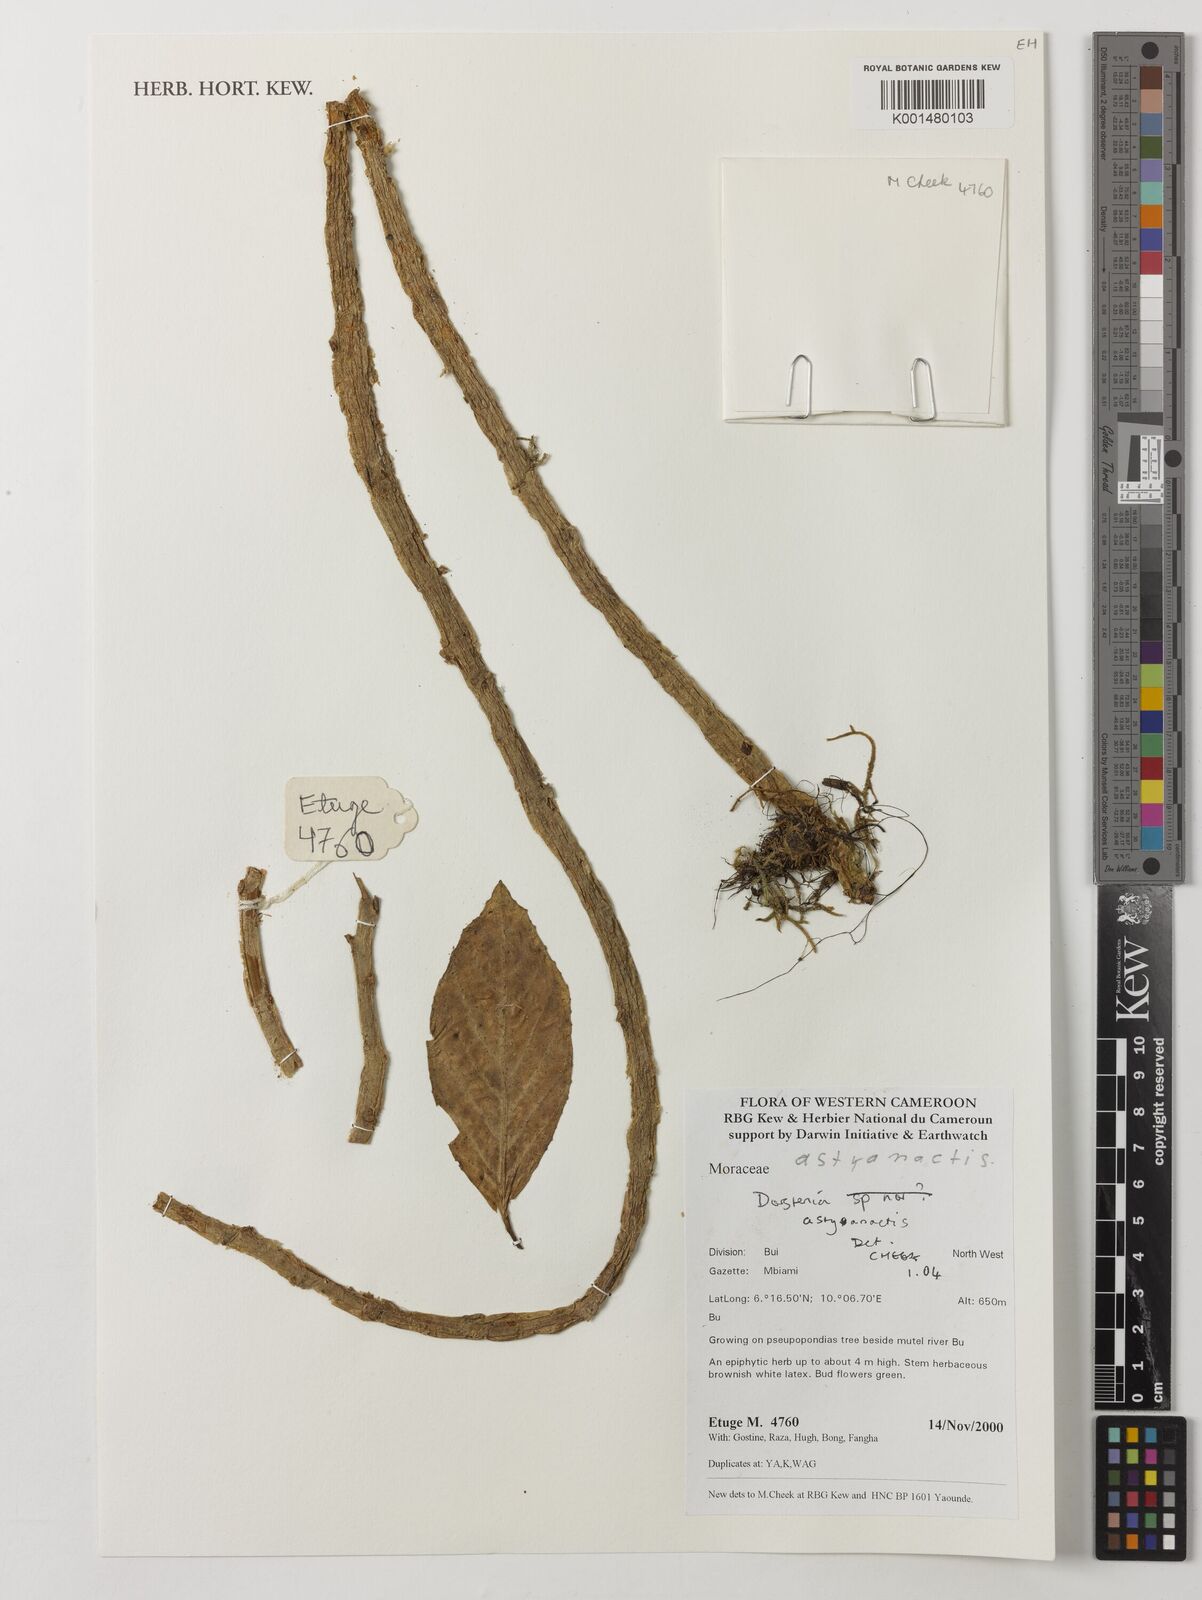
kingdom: Plantae
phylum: Tracheophyta
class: Magnoliopsida
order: Rosales
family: Moraceae
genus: Dorstenia
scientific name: Dorstenia astyanactis
